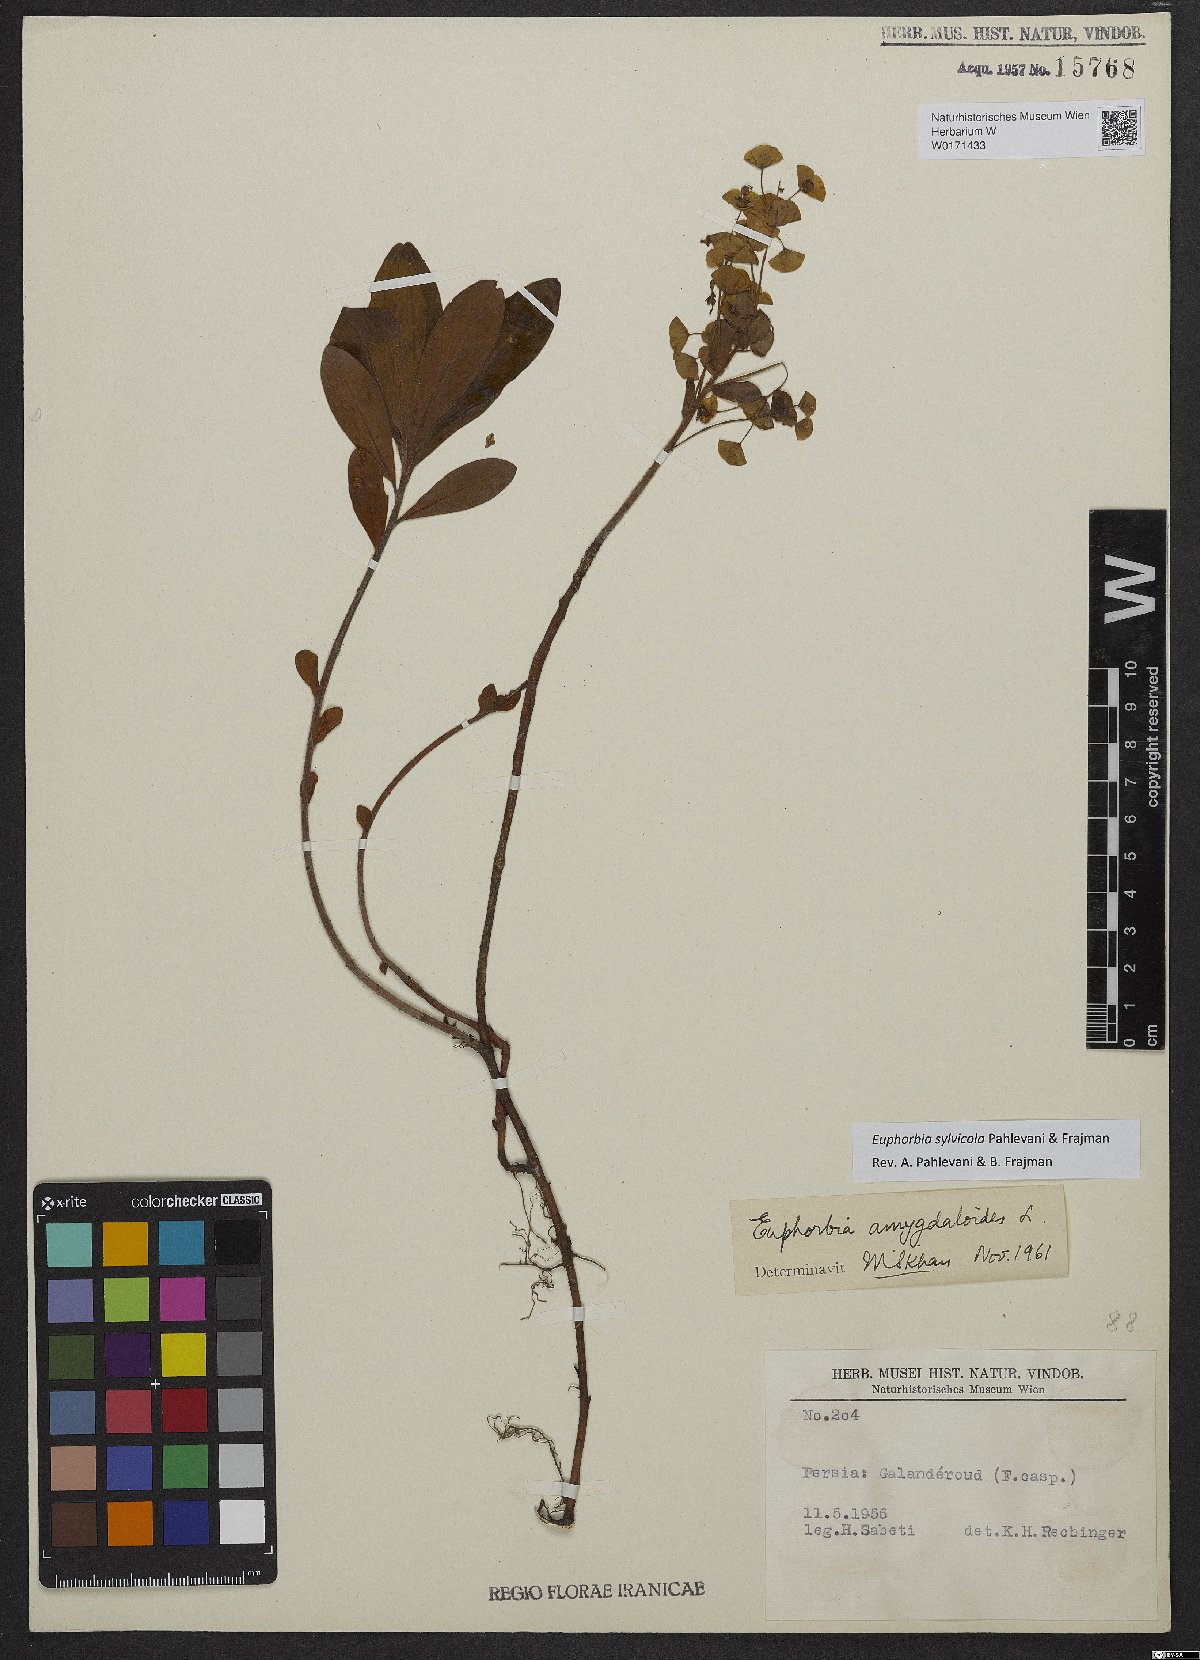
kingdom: Plantae
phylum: Tracheophyta
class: Magnoliopsida
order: Malpighiales
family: Euphorbiaceae
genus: Euphorbia
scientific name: Euphorbia juttae
